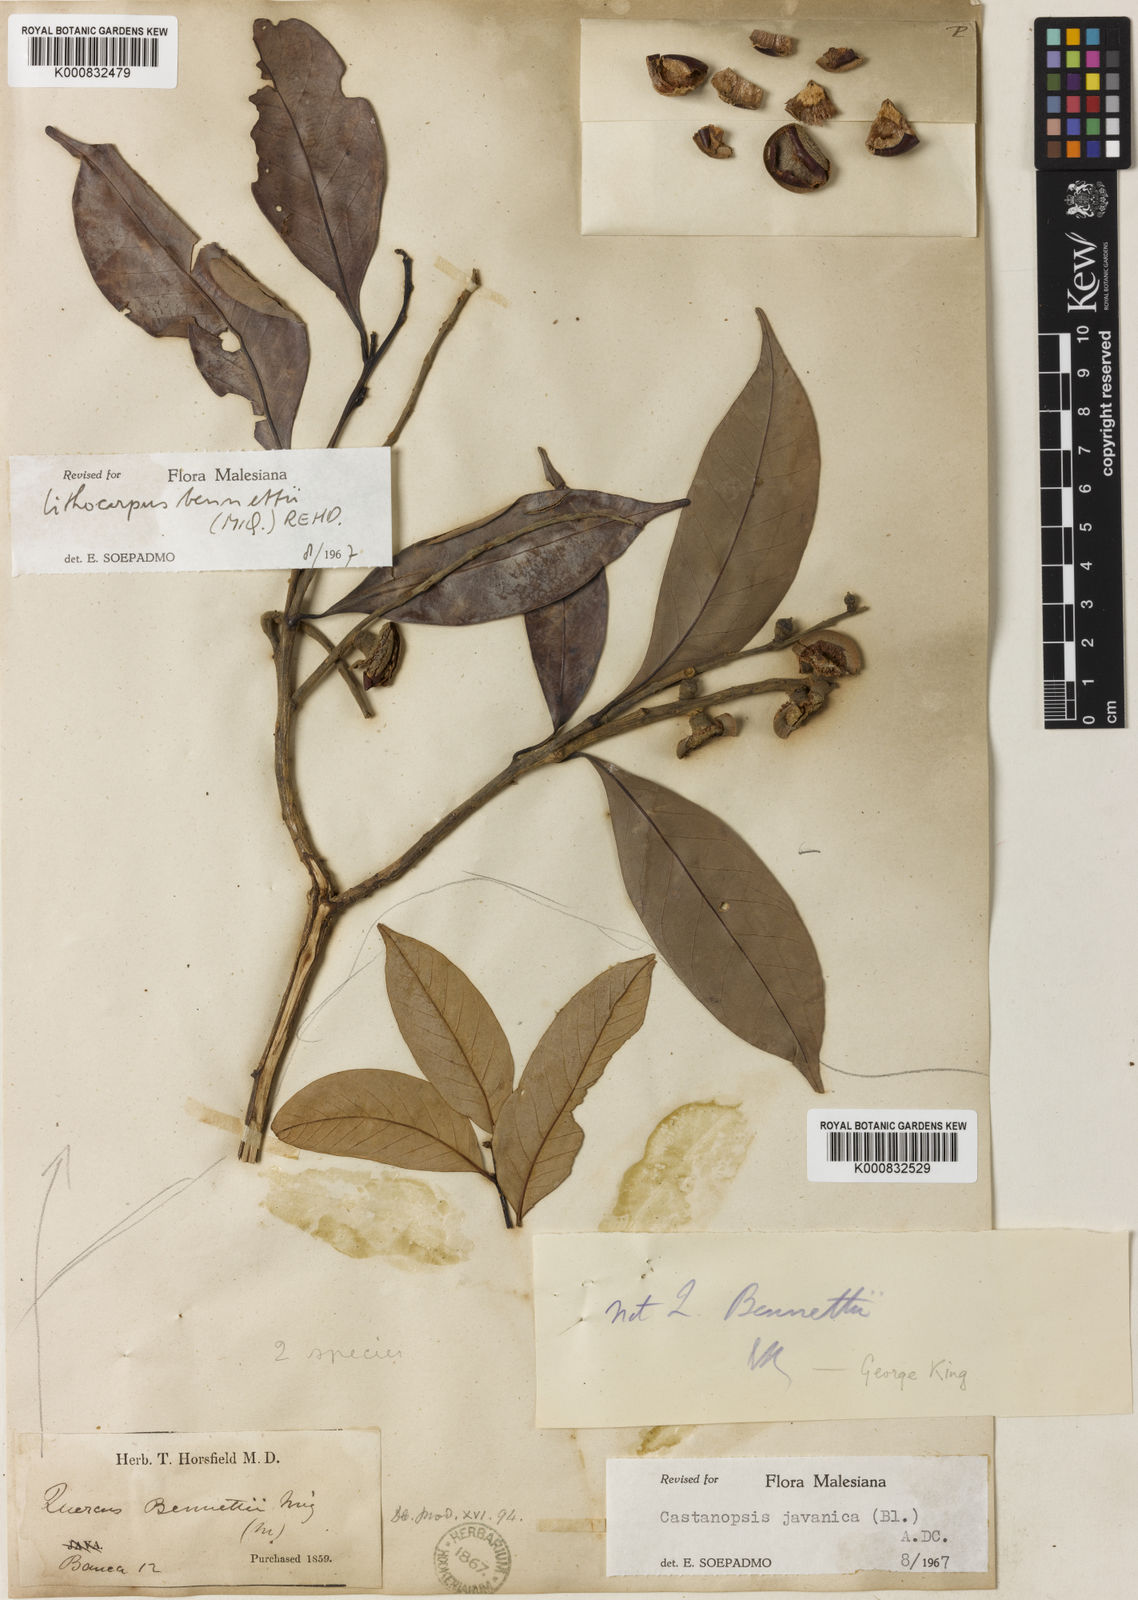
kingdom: Plantae
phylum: Tracheophyta
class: Magnoliopsida
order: Fagales
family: Fagaceae
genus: Lithocarpus
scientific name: Lithocarpus bennettii
